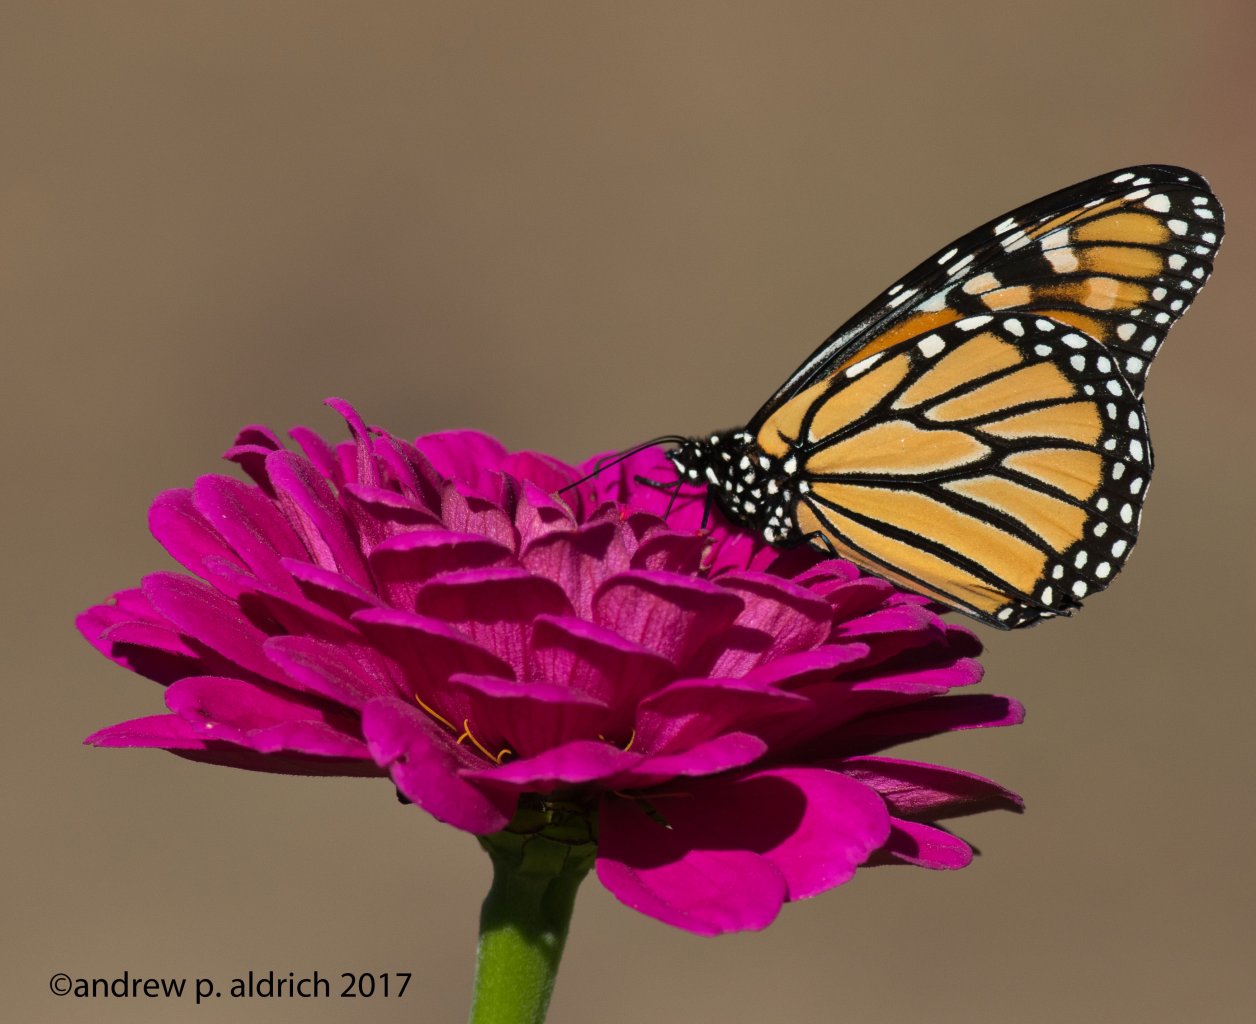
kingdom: Animalia
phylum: Arthropoda
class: Insecta
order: Lepidoptera
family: Nymphalidae
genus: Danaus
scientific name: Danaus plexippus
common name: Monarch
